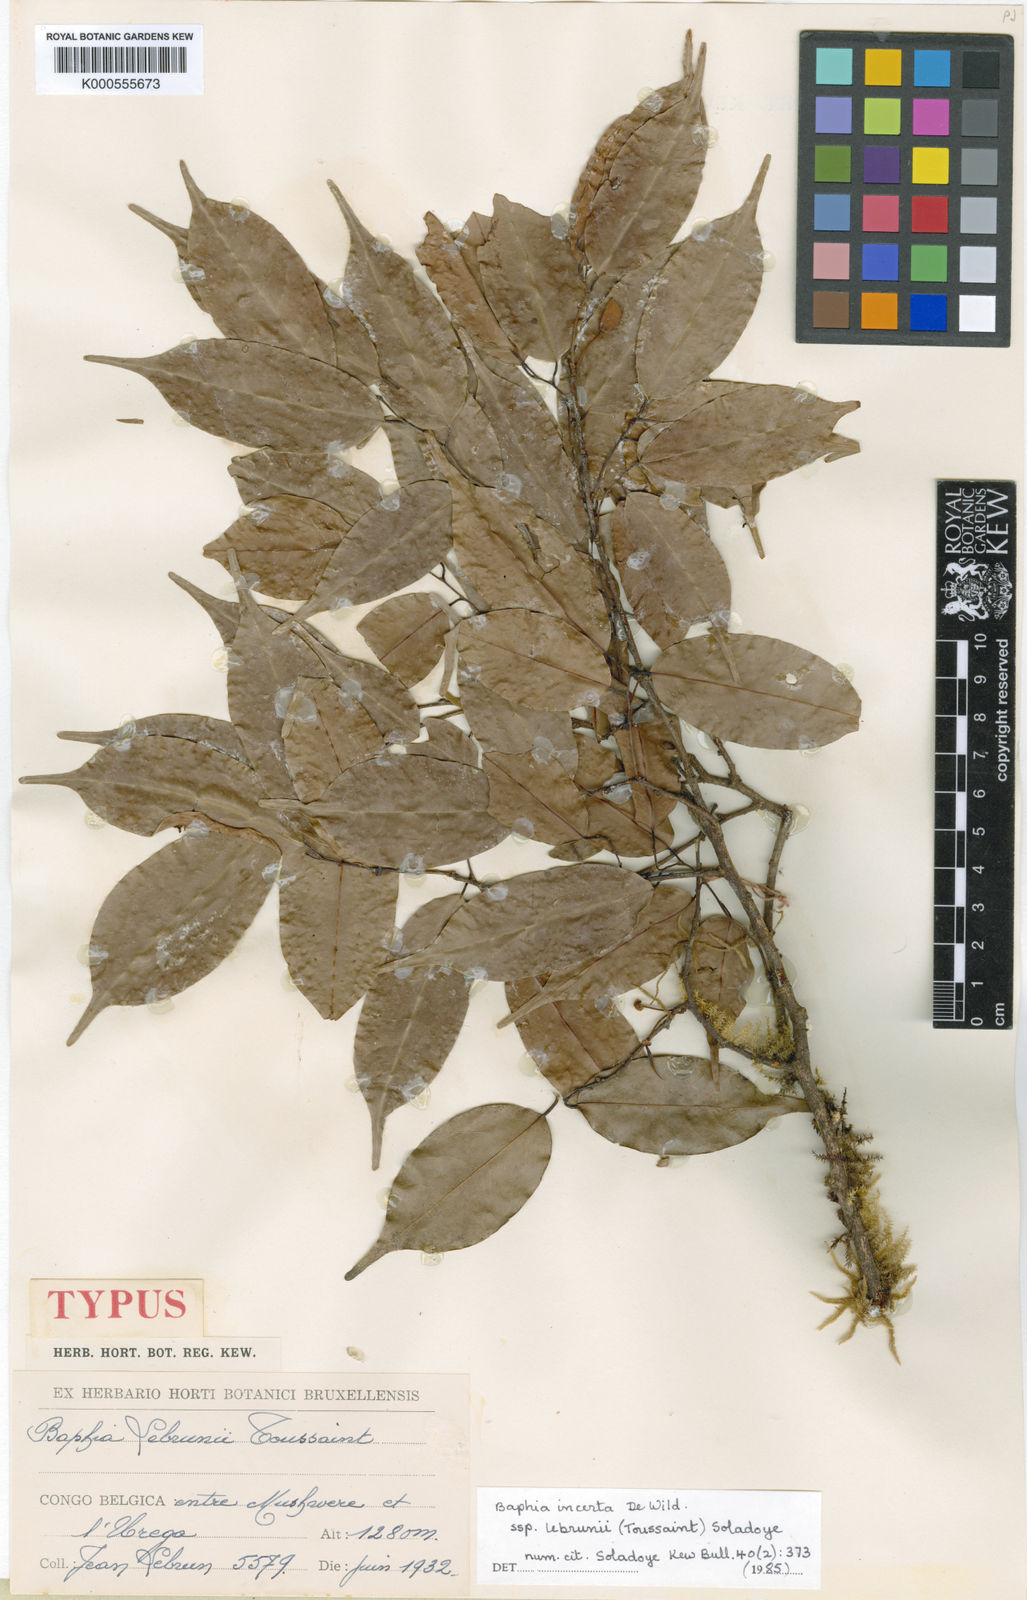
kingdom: Plantae
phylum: Tracheophyta
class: Magnoliopsida
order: Fabales
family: Fabaceae
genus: Baphia
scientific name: Baphia incerta
